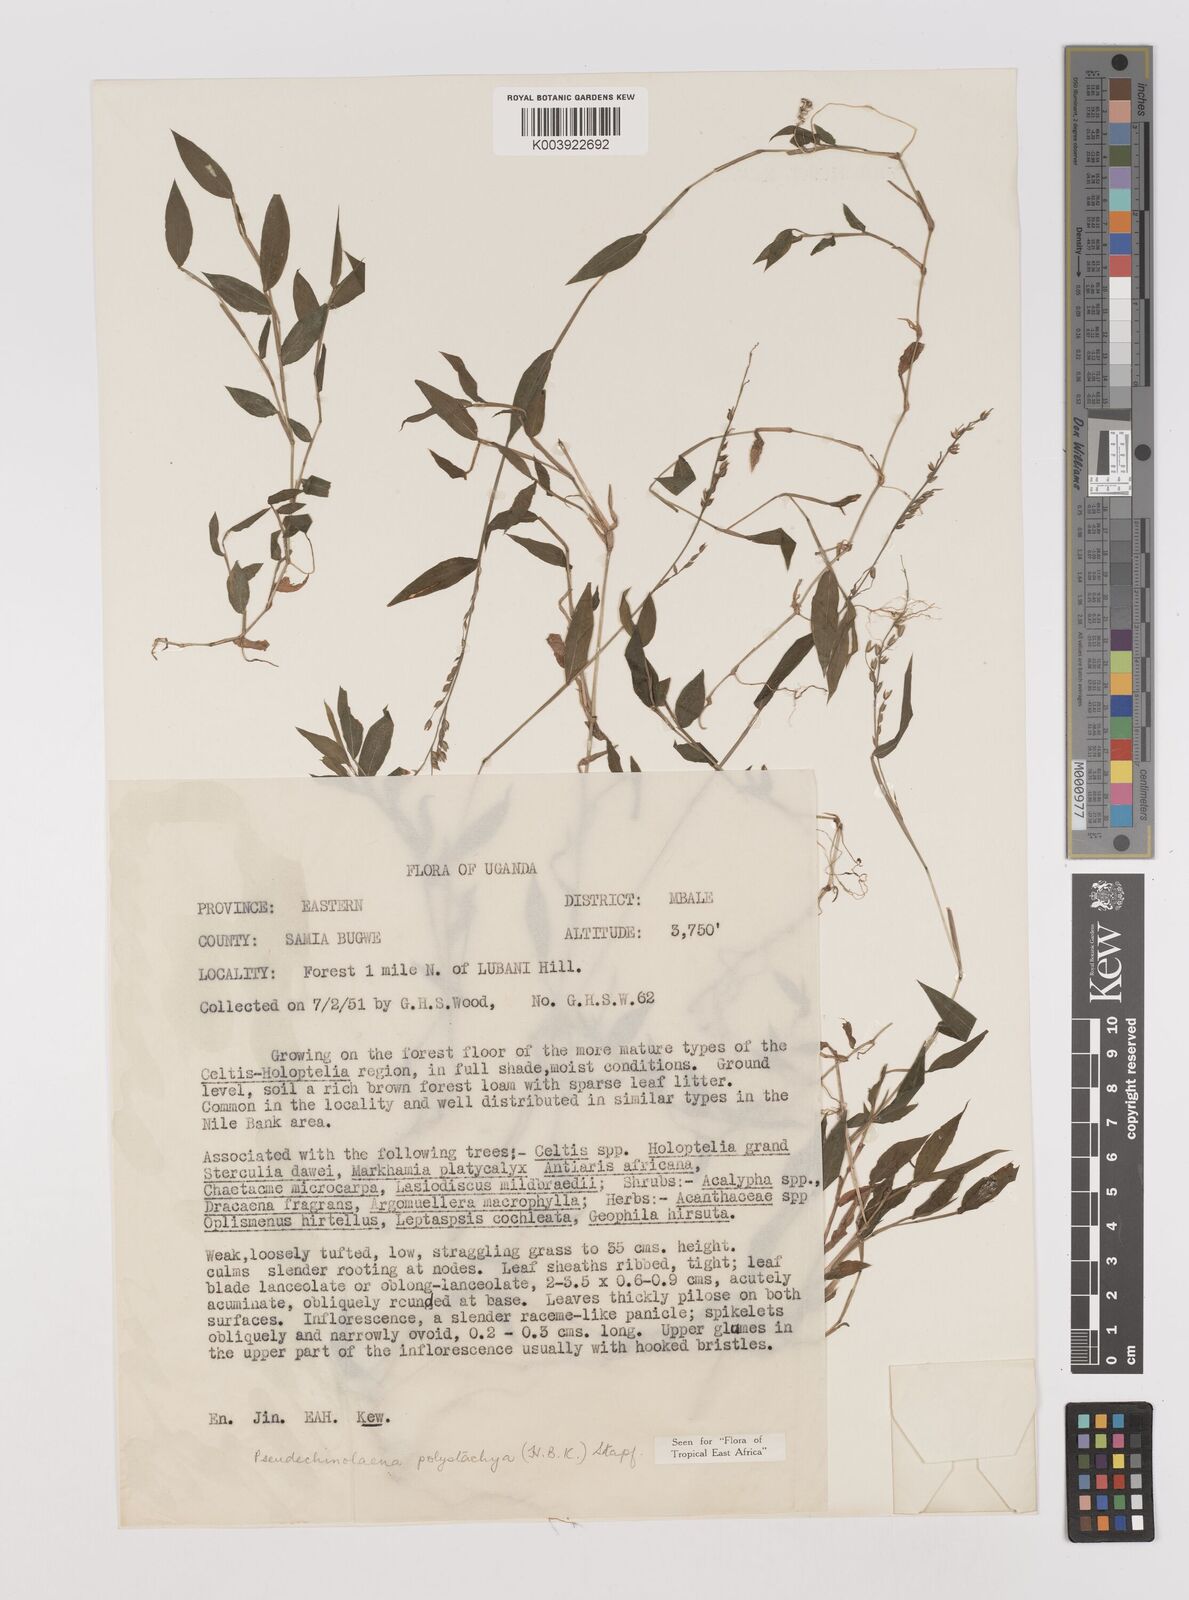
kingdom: Plantae
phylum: Tracheophyta
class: Liliopsida
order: Poales
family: Poaceae
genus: Pseudechinolaena
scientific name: Pseudechinolaena polystachya
